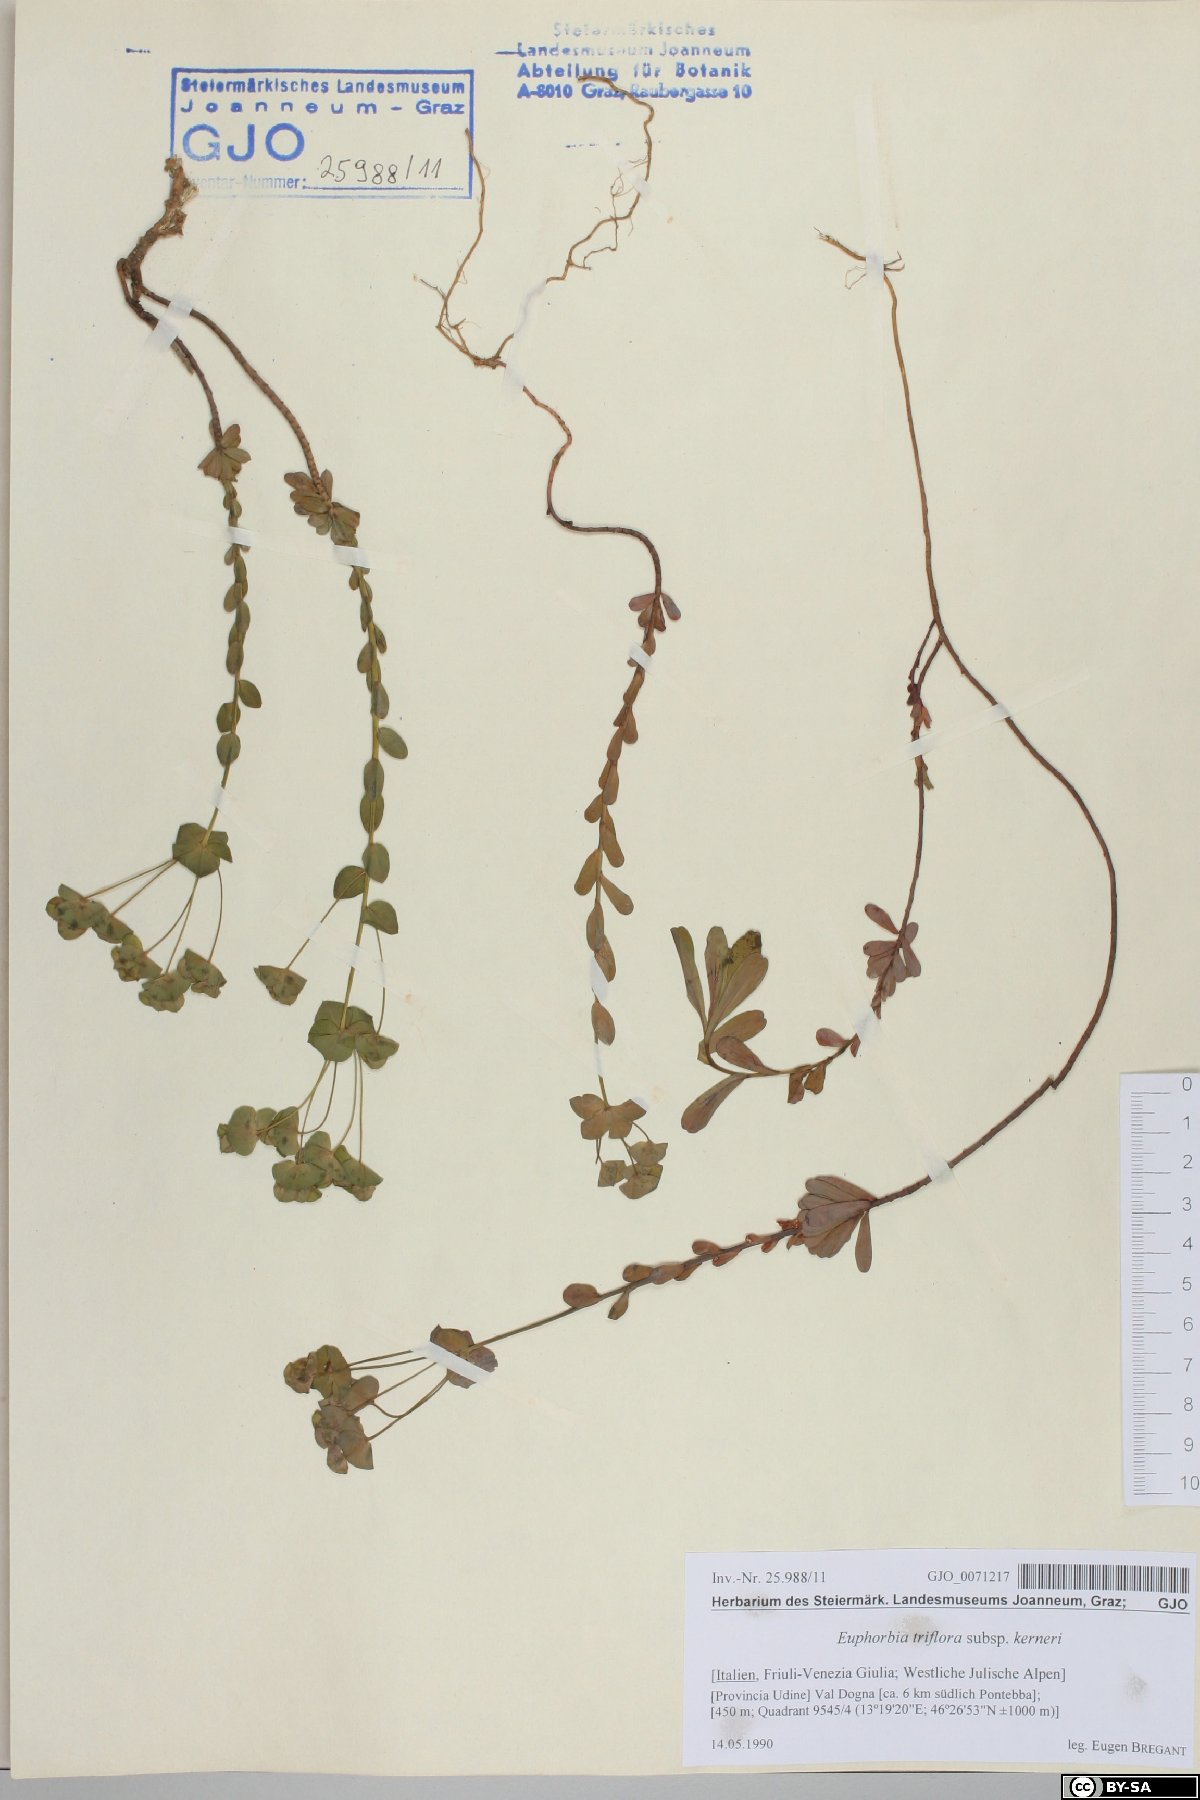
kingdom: Plantae
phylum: Tracheophyta
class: Magnoliopsida
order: Malpighiales
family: Euphorbiaceae
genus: Euphorbia
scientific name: Euphorbia kerneri
